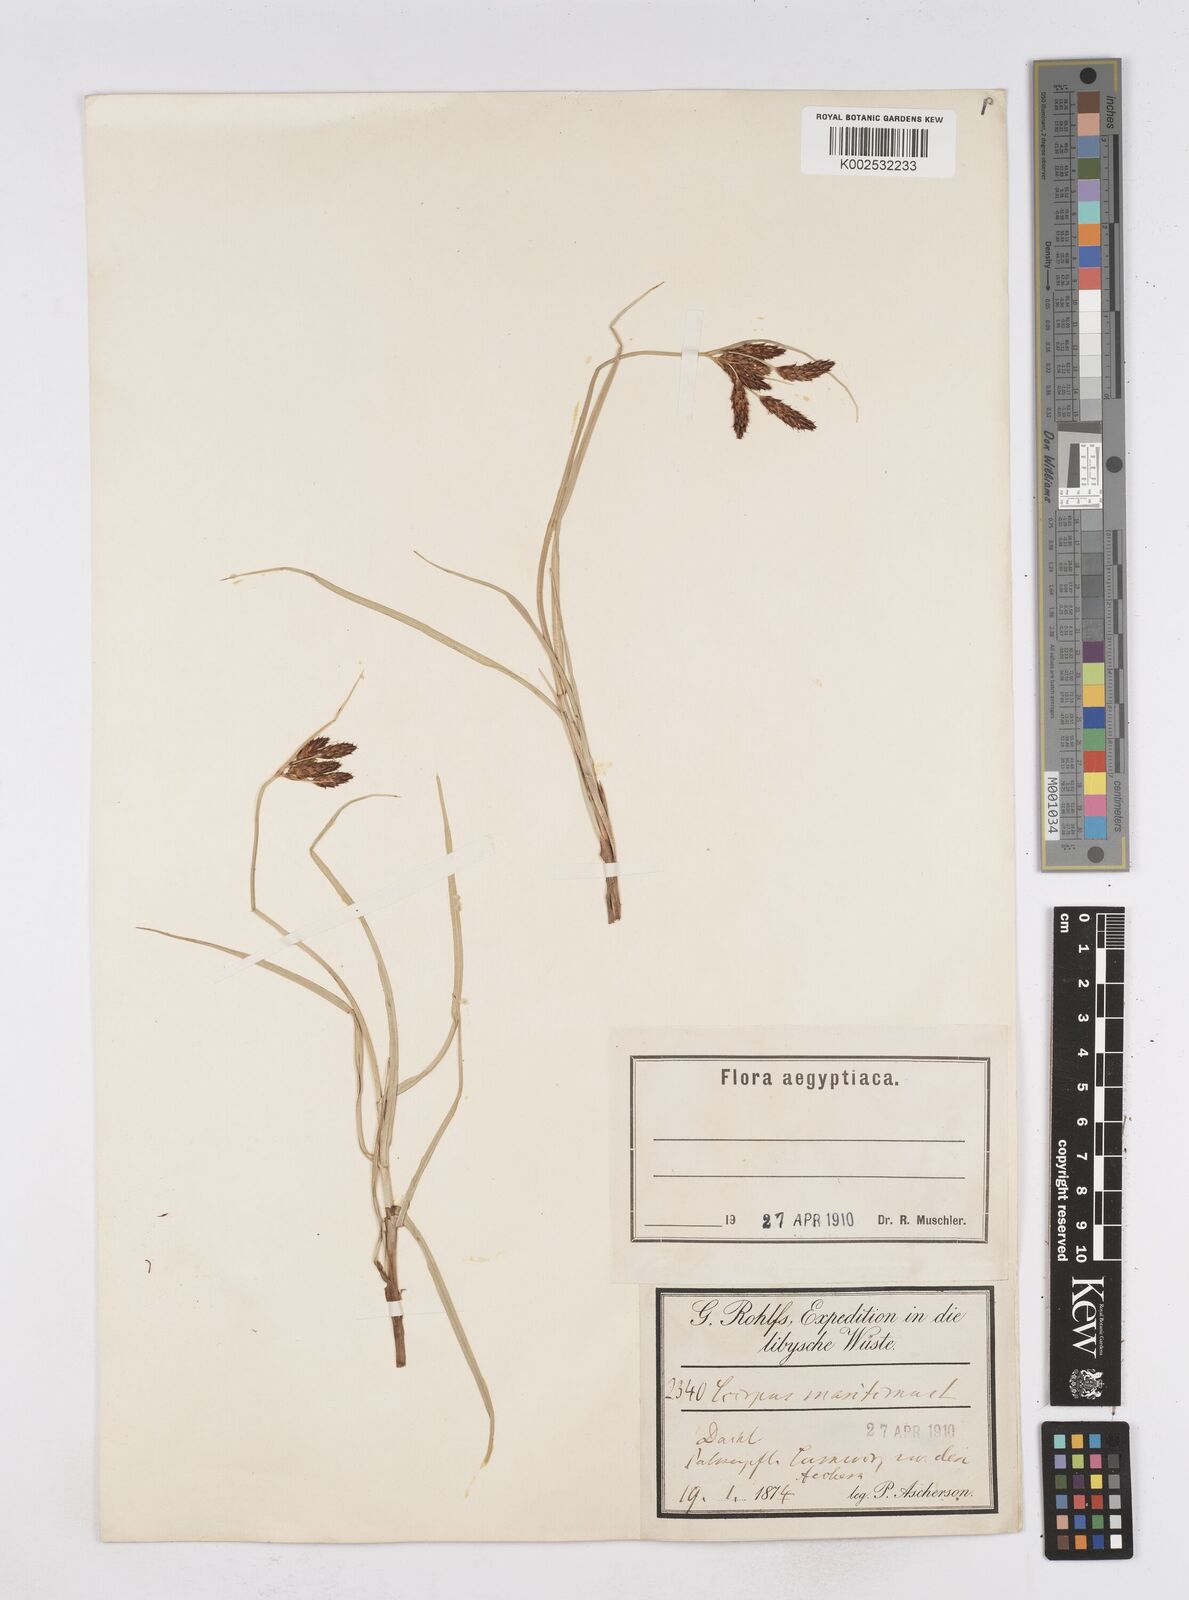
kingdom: Plantae
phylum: Tracheophyta
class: Liliopsida
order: Poales
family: Cyperaceae
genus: Bolboschoenus
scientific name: Bolboschoenus maritimus
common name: Sea club-rush
